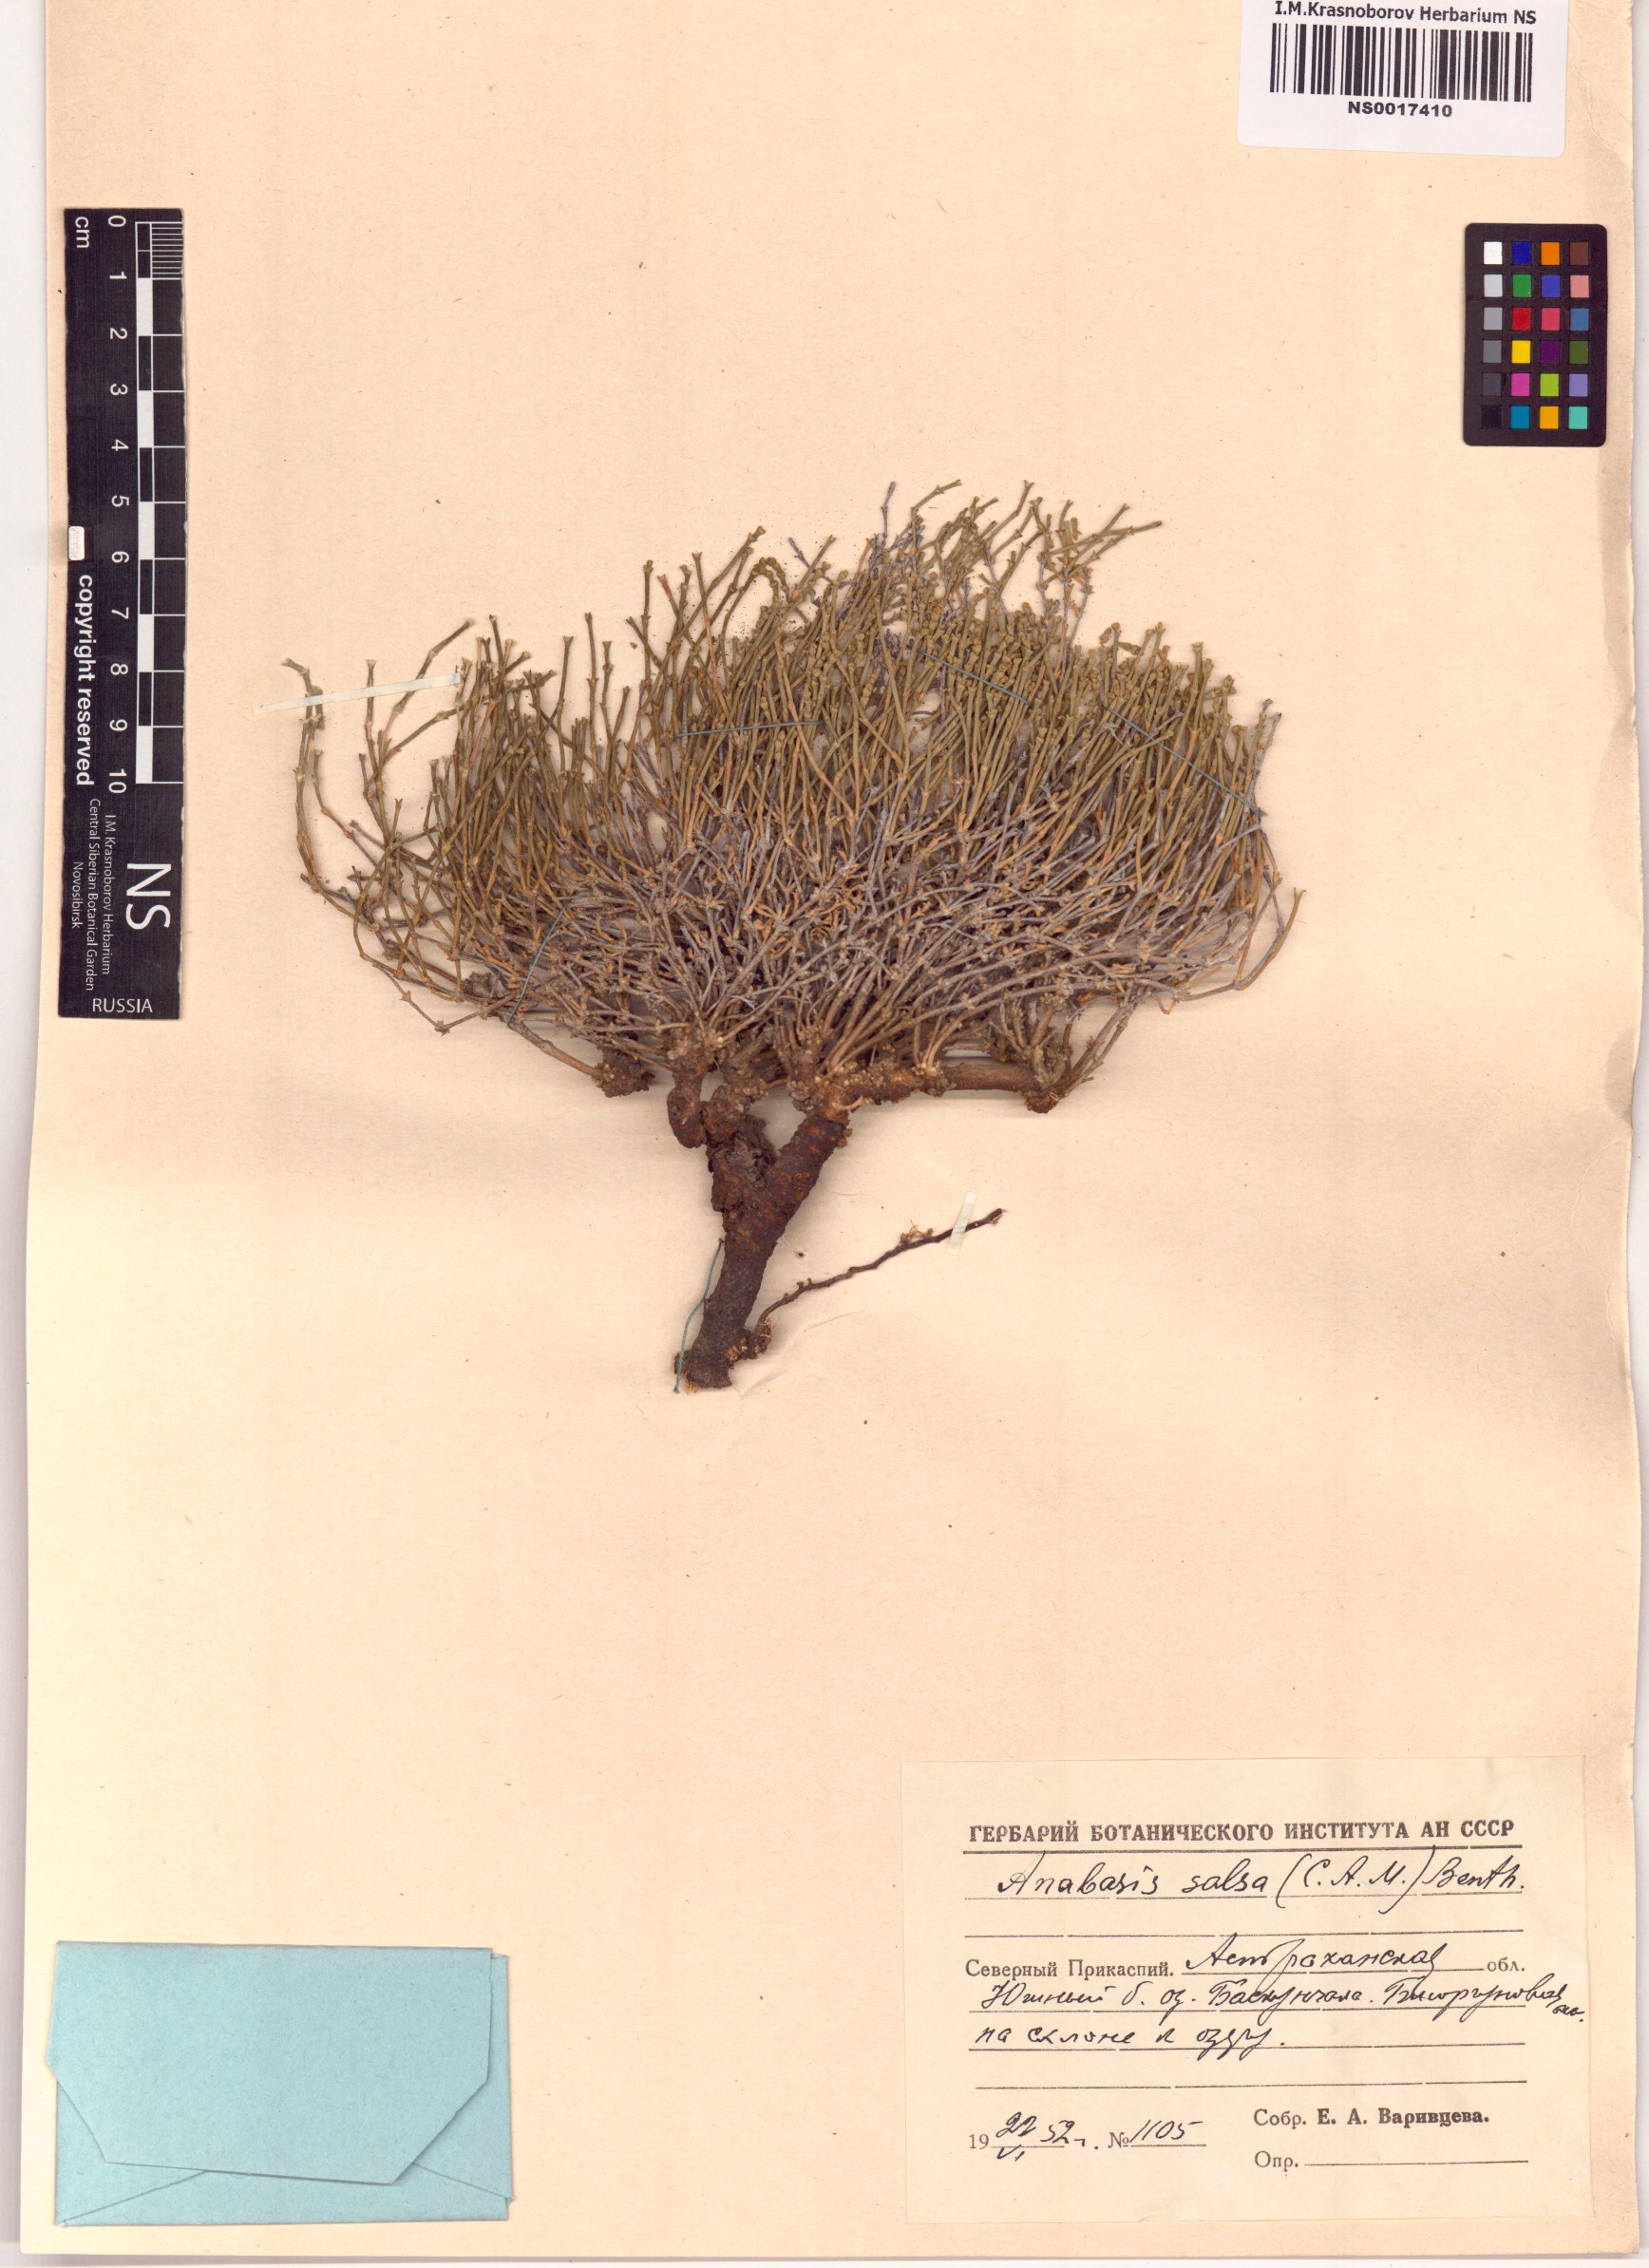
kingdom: Plantae
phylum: Tracheophyta
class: Magnoliopsida
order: Caryophyllales
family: Amaranthaceae
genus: Anabasis
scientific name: Anabasis salsa
